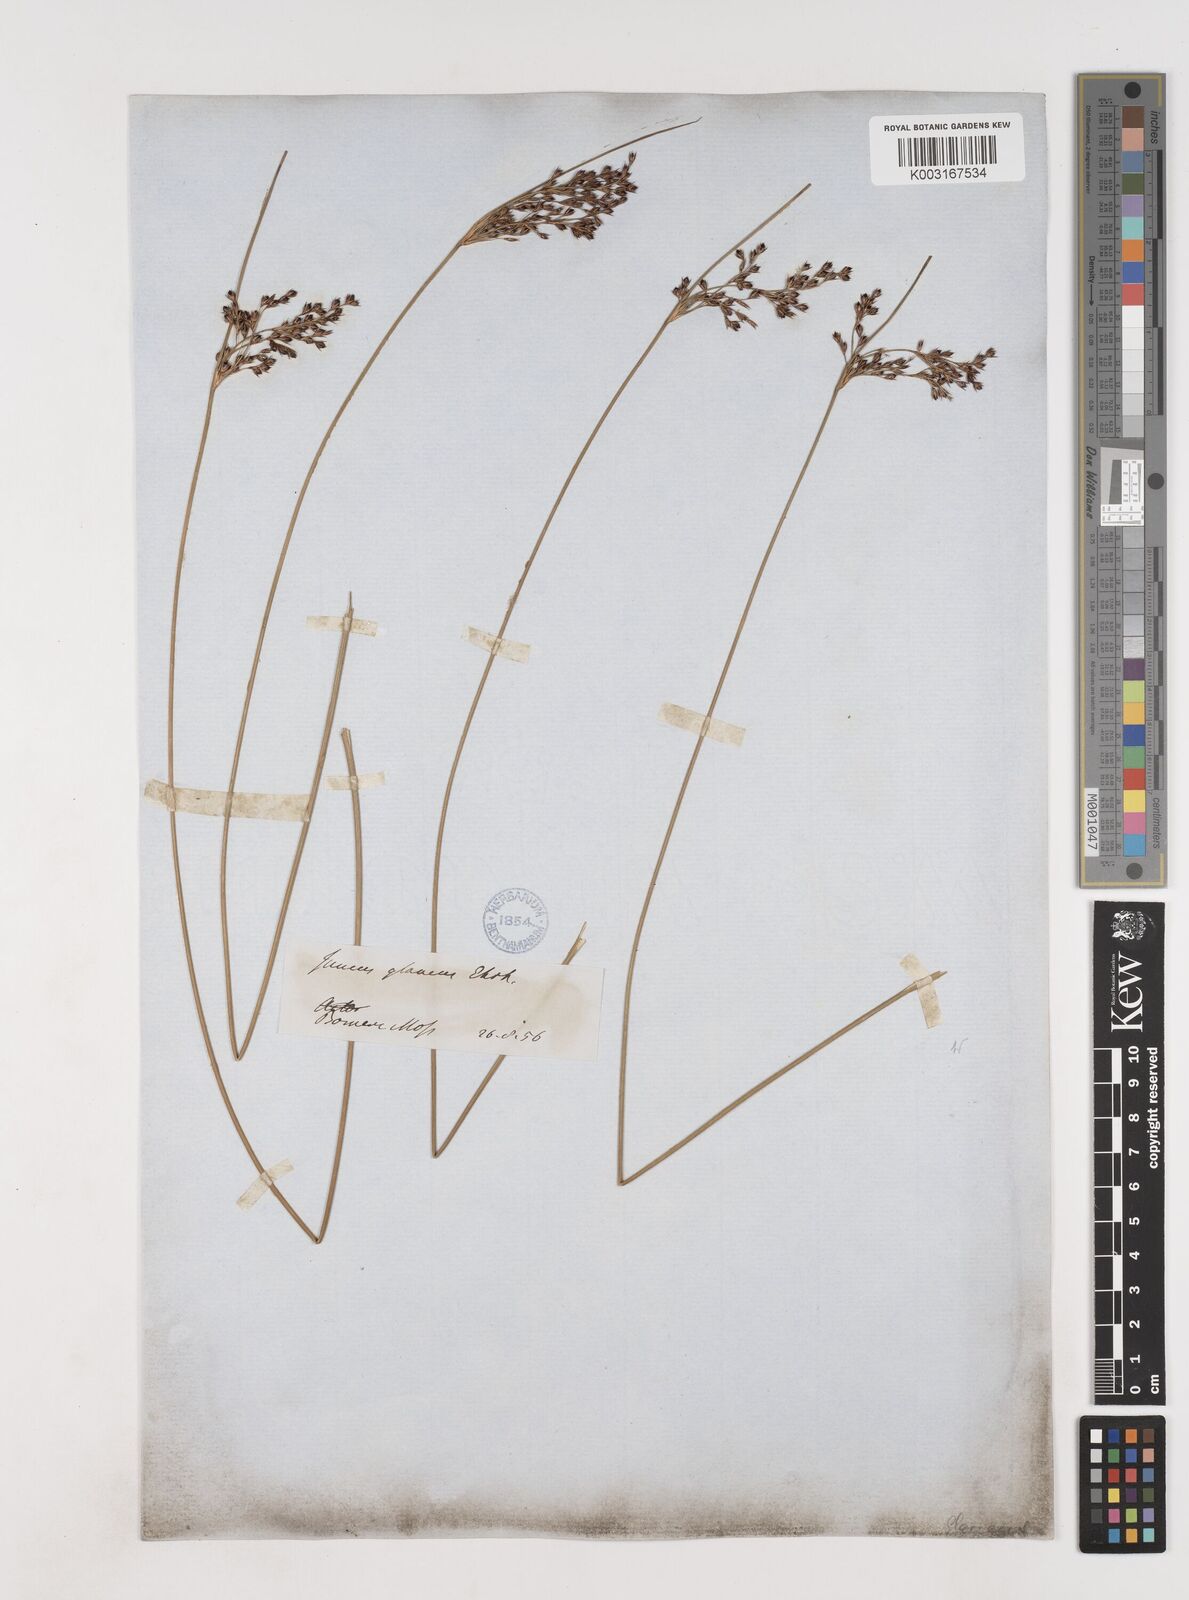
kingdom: Plantae
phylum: Tracheophyta
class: Liliopsida
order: Poales
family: Juncaceae
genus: Juncus
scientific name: Juncus inflexus
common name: Hard rush
